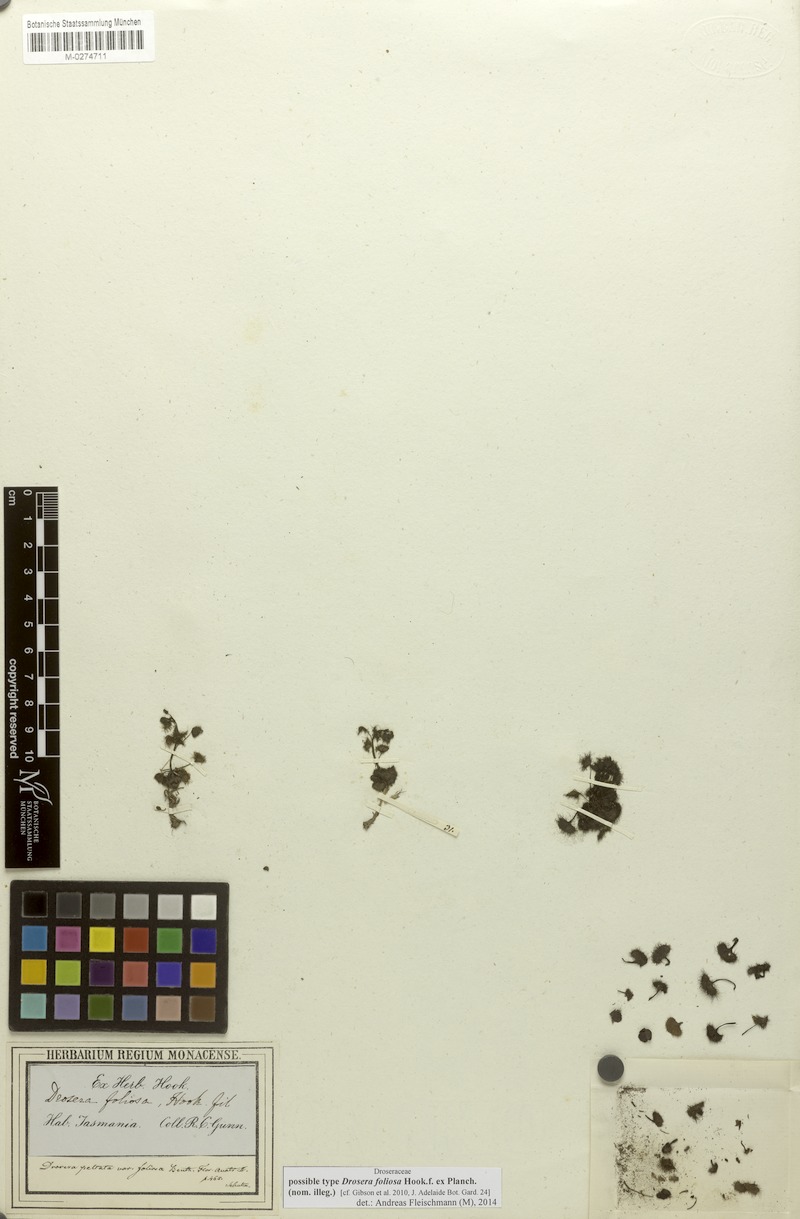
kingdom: Plantae
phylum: Tracheophyta
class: Magnoliopsida
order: Caryophyllales
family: Droseraceae
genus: Drosera
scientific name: Drosera hookeri
